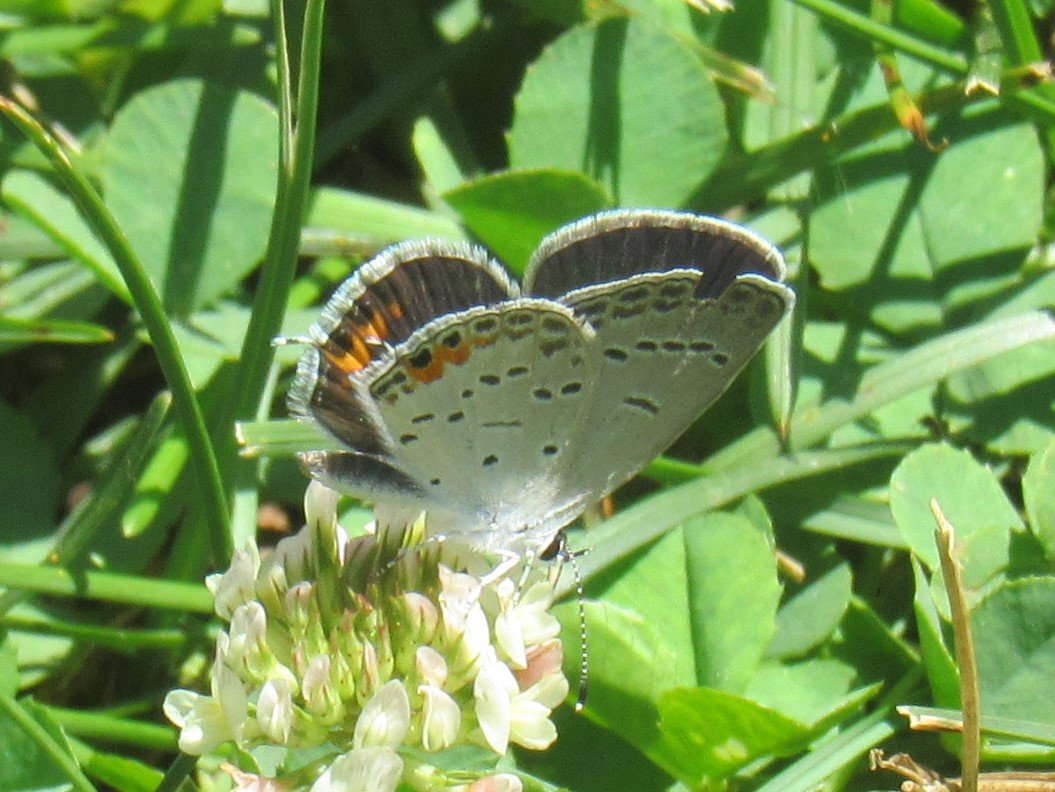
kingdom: Animalia
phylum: Arthropoda
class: Insecta
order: Lepidoptera
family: Lycaenidae
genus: Elkalyce
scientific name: Elkalyce comyntas
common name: Eastern Tailed-Blue
